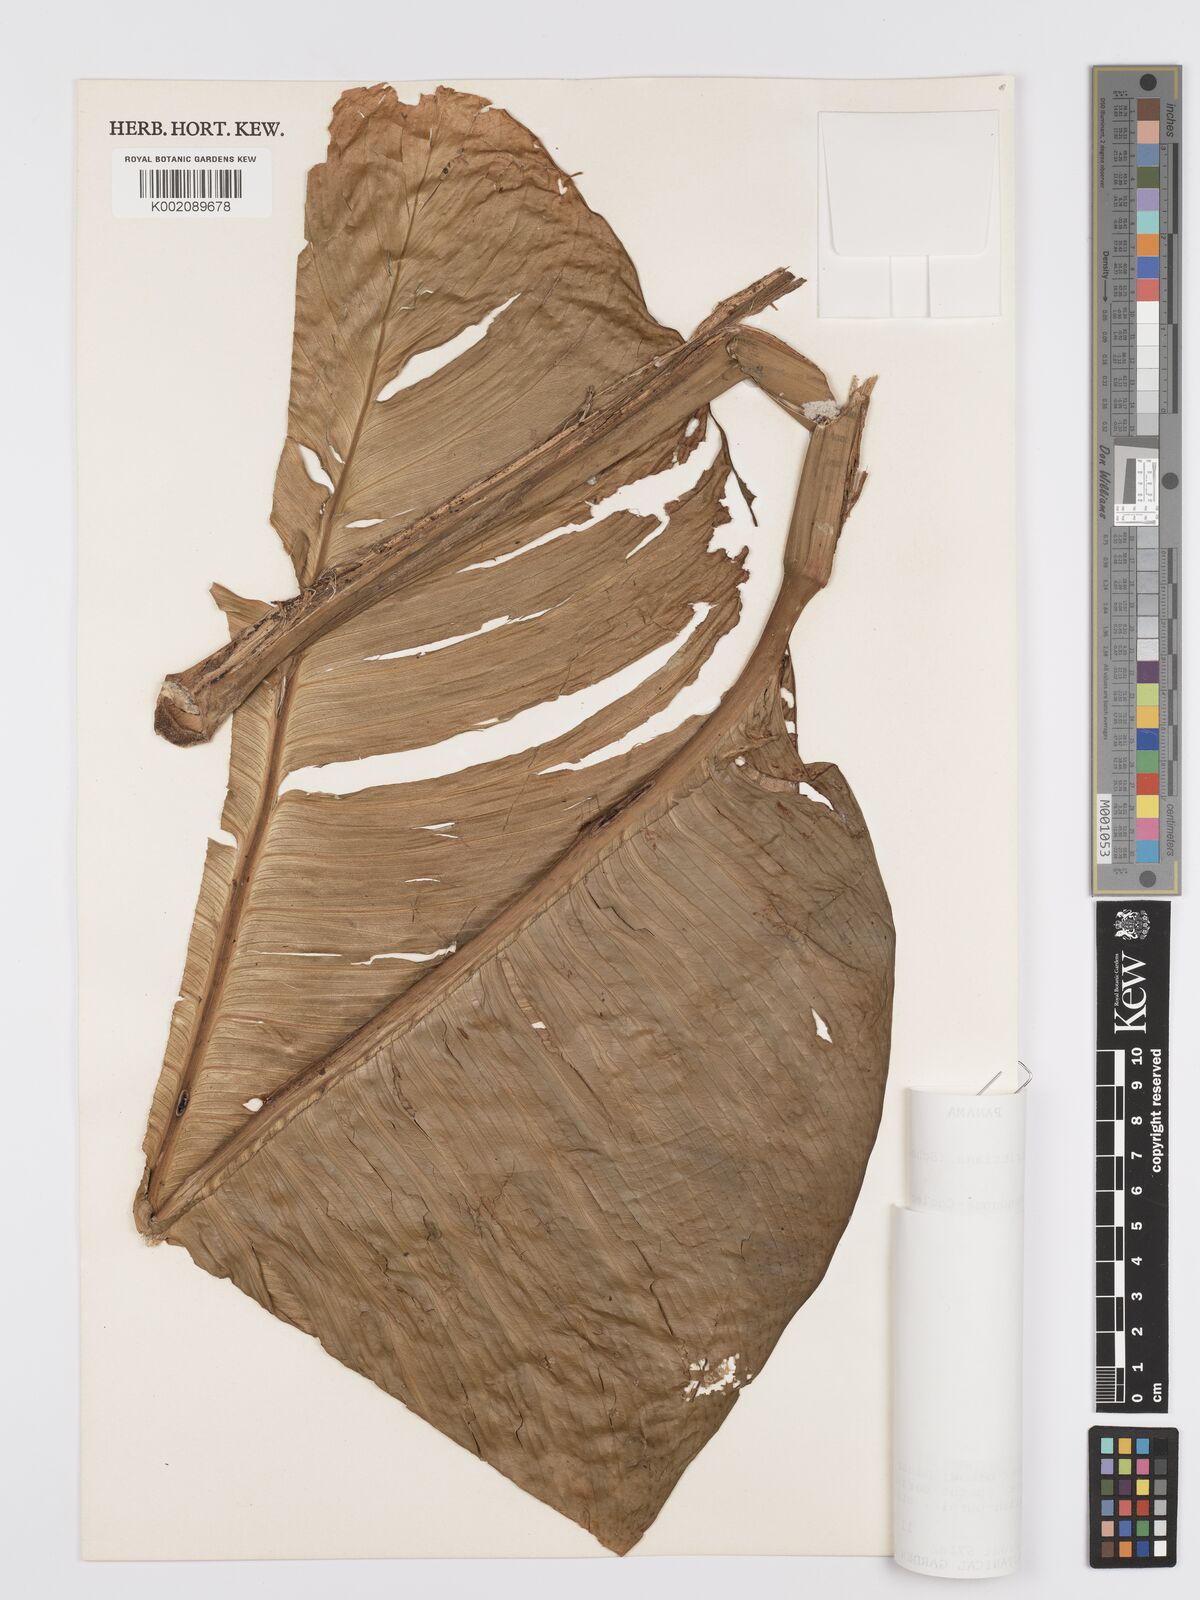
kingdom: Plantae
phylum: Tracheophyta
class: Liliopsida
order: Alismatales
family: Araceae
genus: Rhodospatha
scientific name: Rhodospatha moritziana
